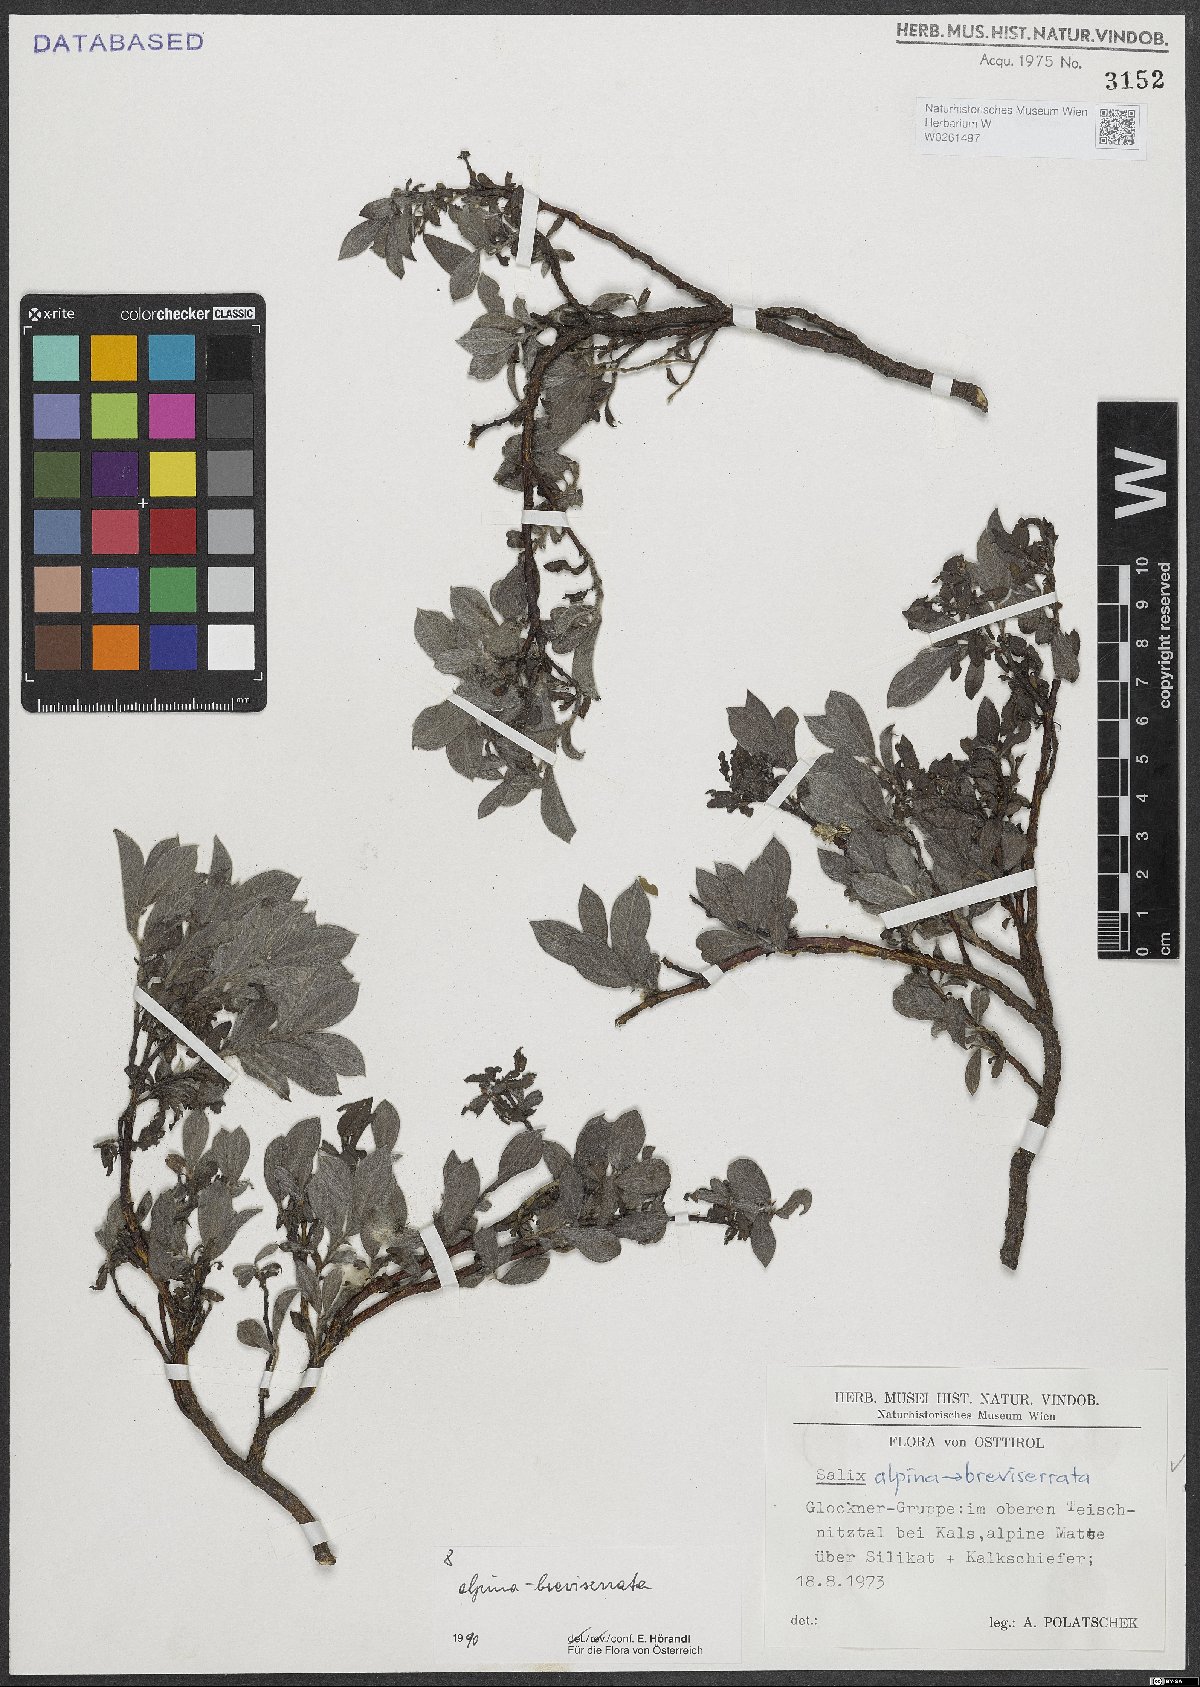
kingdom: Plantae
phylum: Tracheophyta
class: Magnoliopsida
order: Malpighiales
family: Salicaceae
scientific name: Salicaceae
